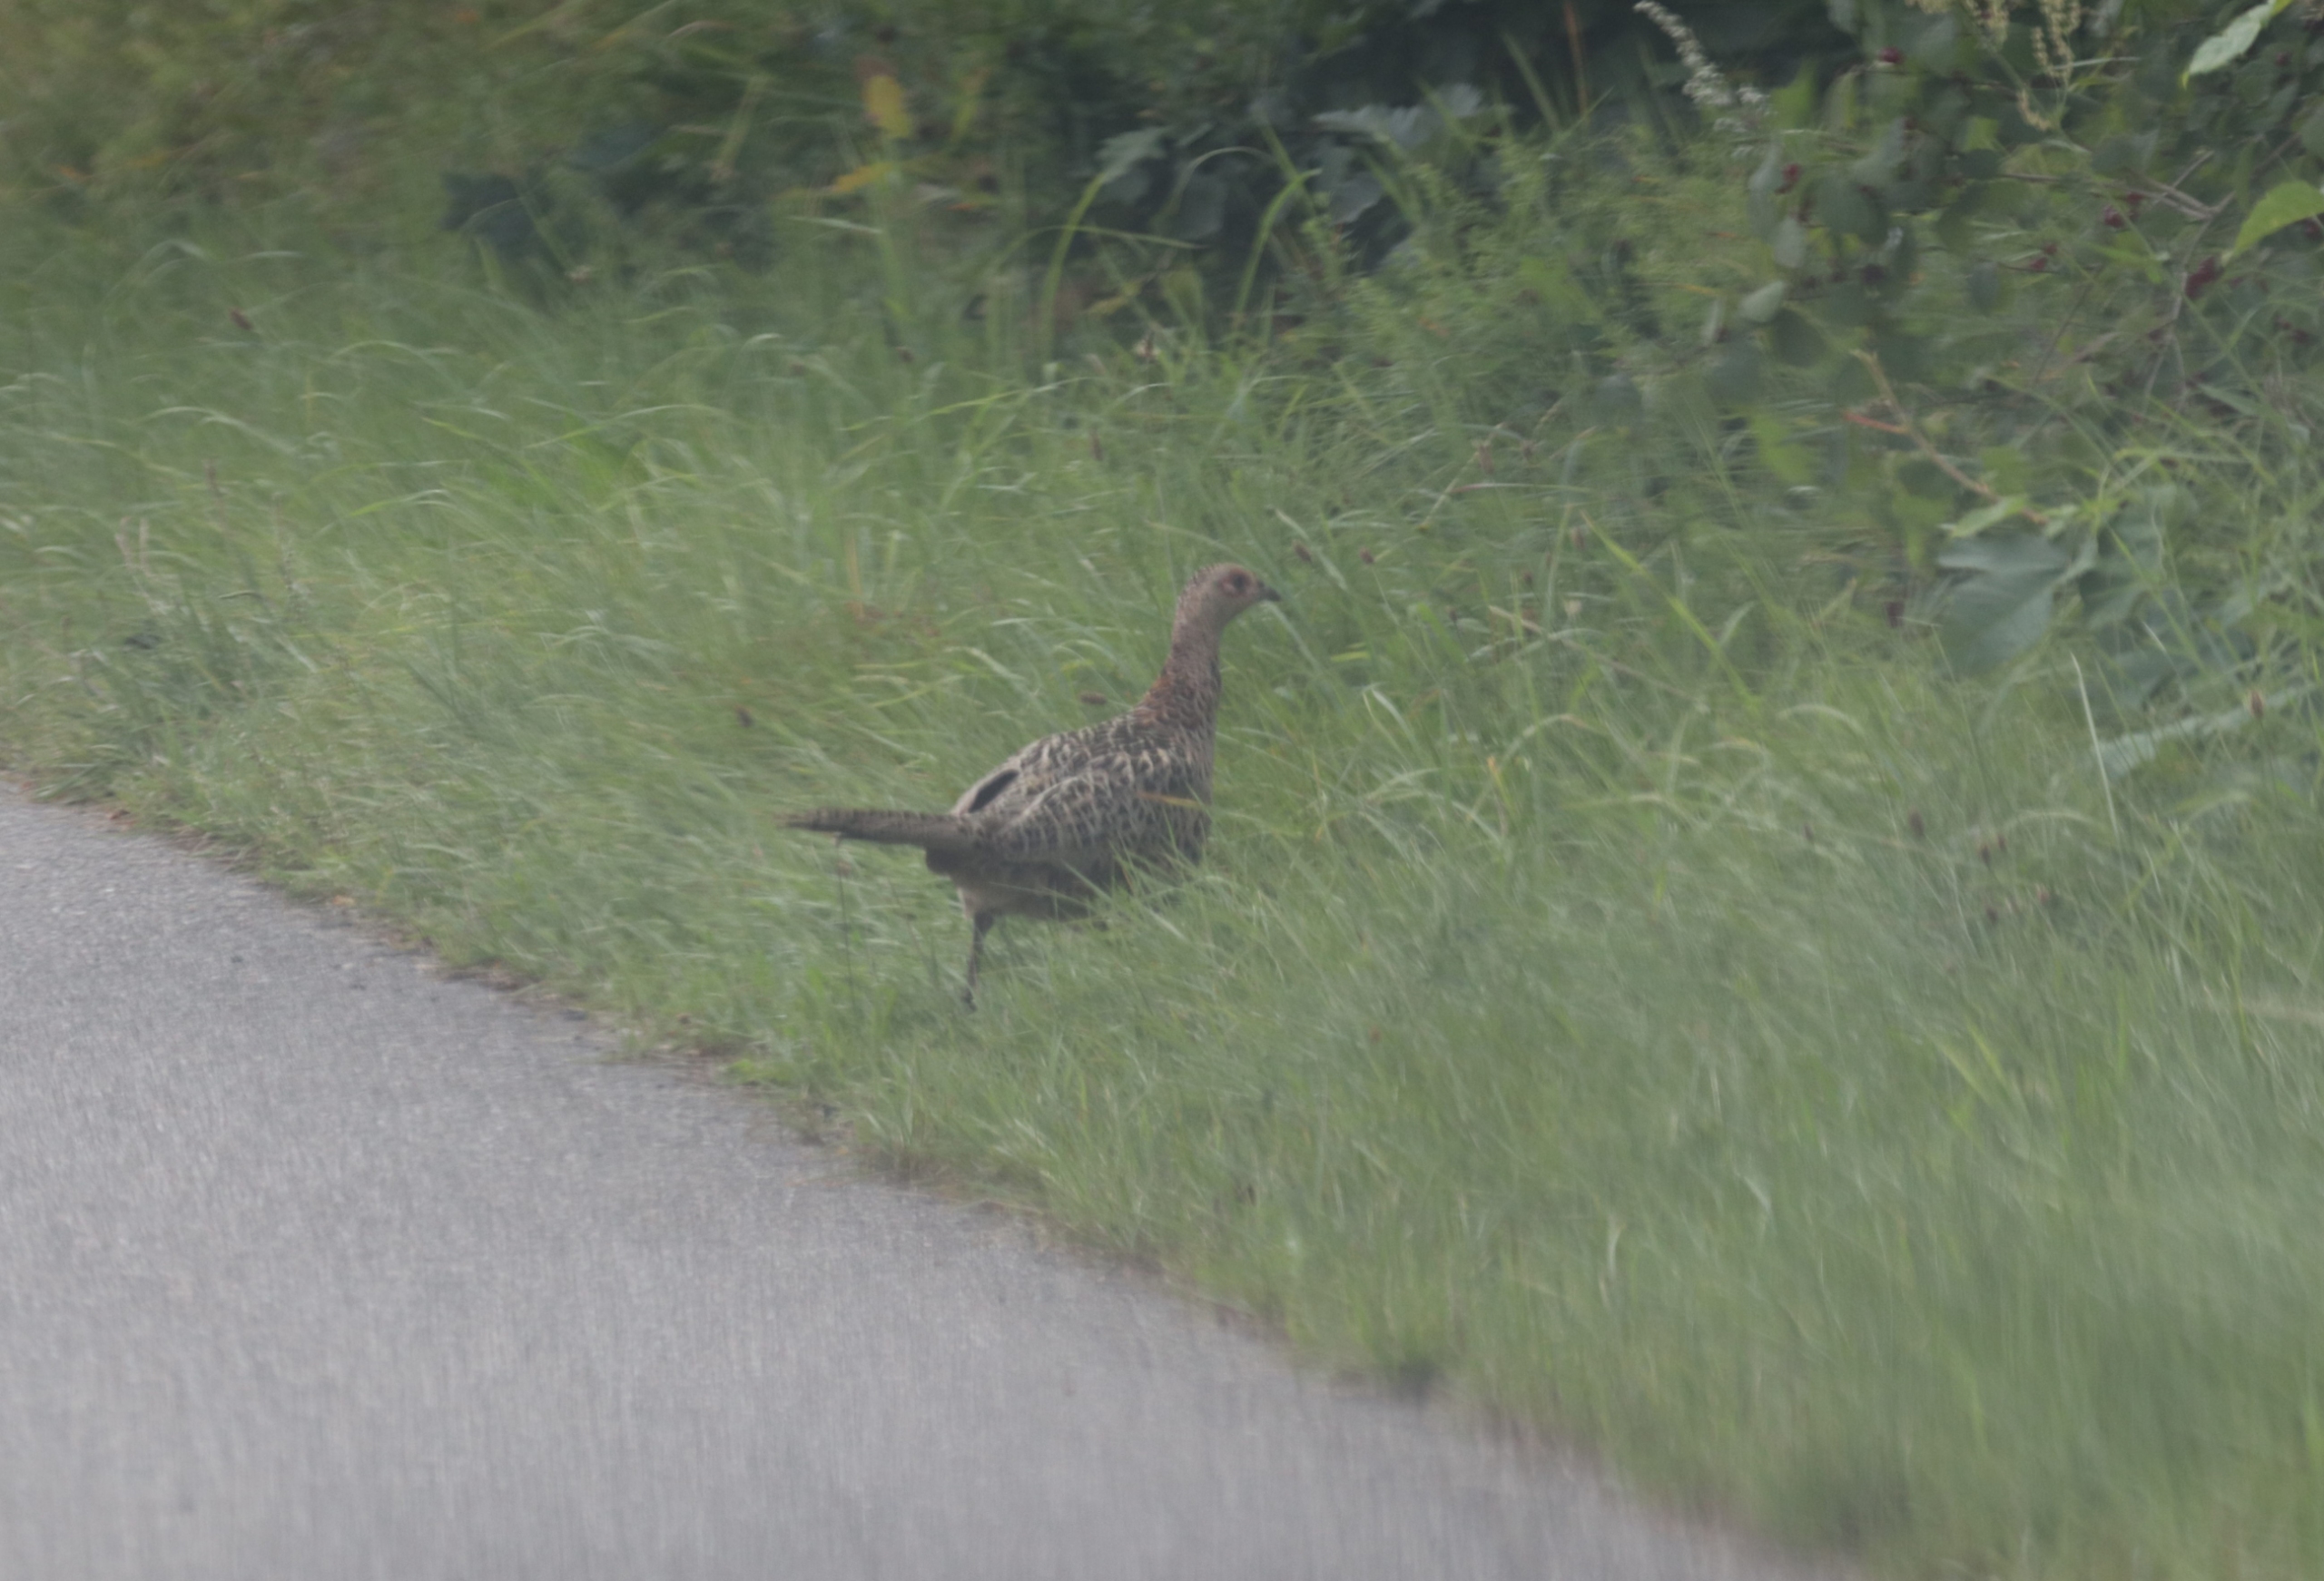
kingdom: Animalia
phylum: Chordata
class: Aves
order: Galliformes
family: Phasianidae
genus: Phasianus
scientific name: Phasianus colchicus
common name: Fasan
